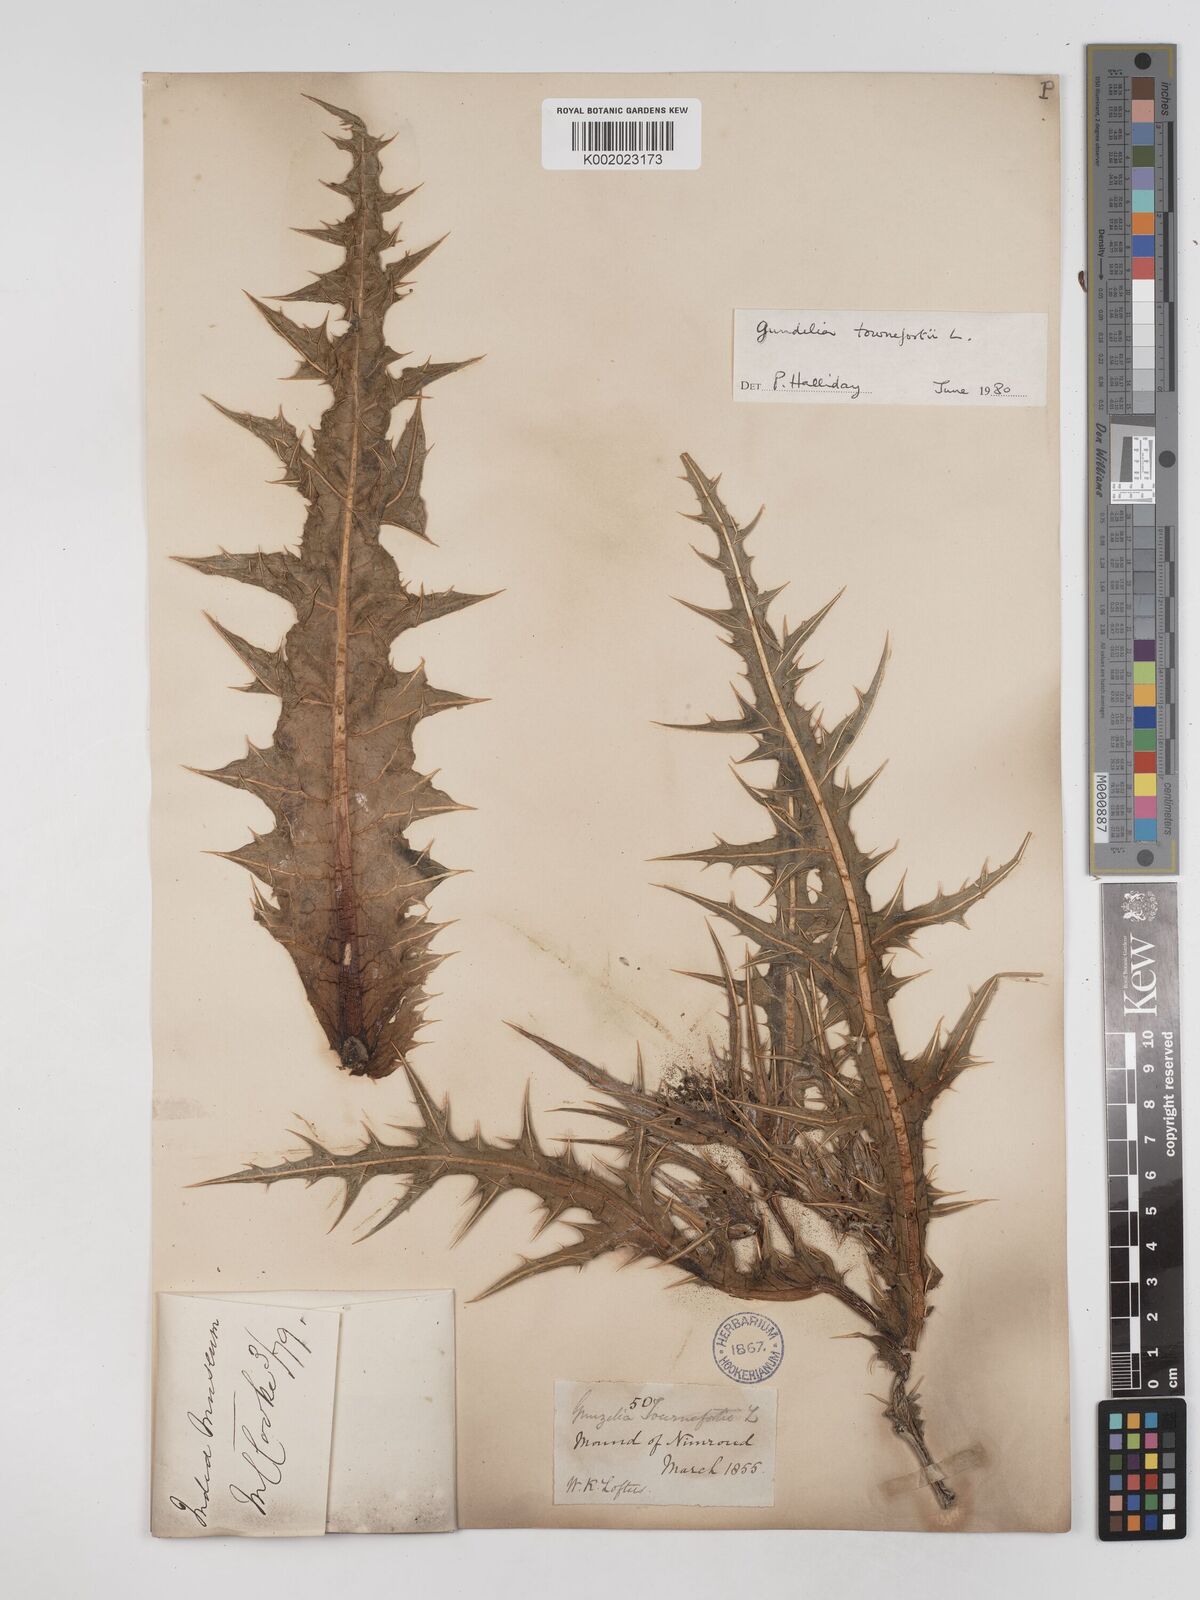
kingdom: Plantae
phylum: Tracheophyta
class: Magnoliopsida
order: Asterales
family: Asteraceae
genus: Gundelia
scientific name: Gundelia tournefortii
